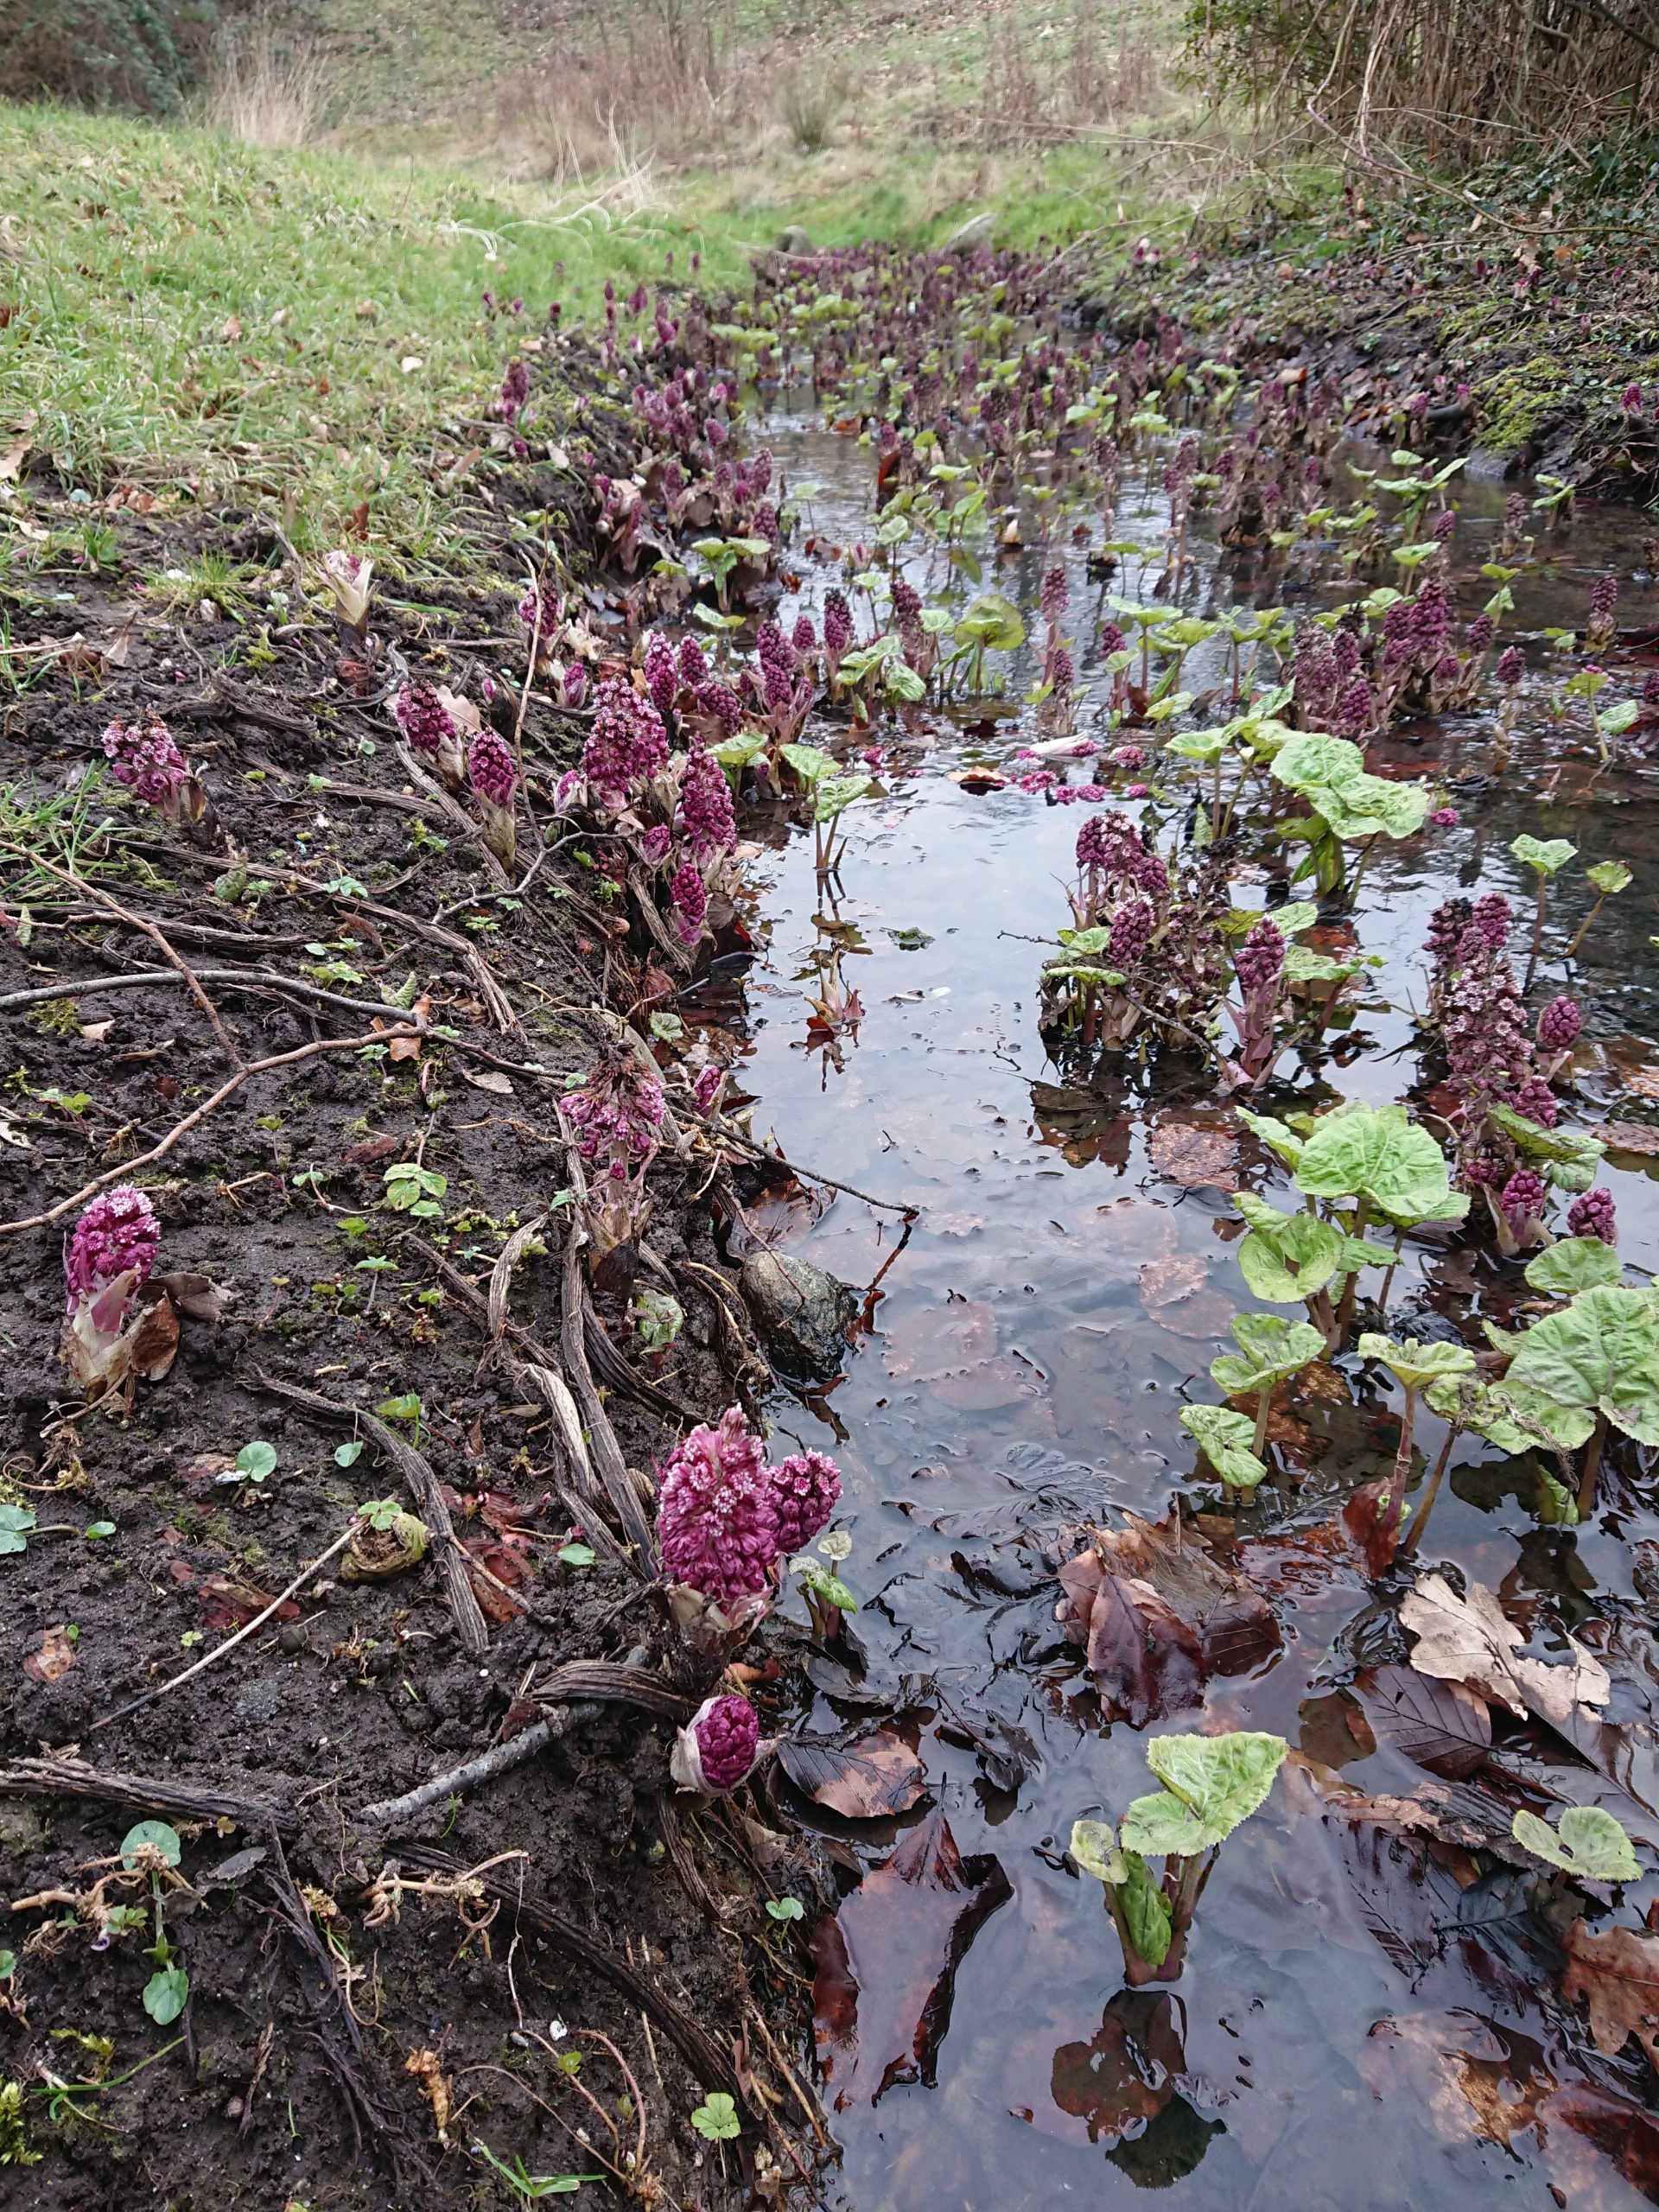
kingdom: Plantae
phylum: Tracheophyta
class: Magnoliopsida
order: Asterales
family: Asteraceae
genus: Petasites
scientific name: Petasites hybridus
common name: Rød hestehov
